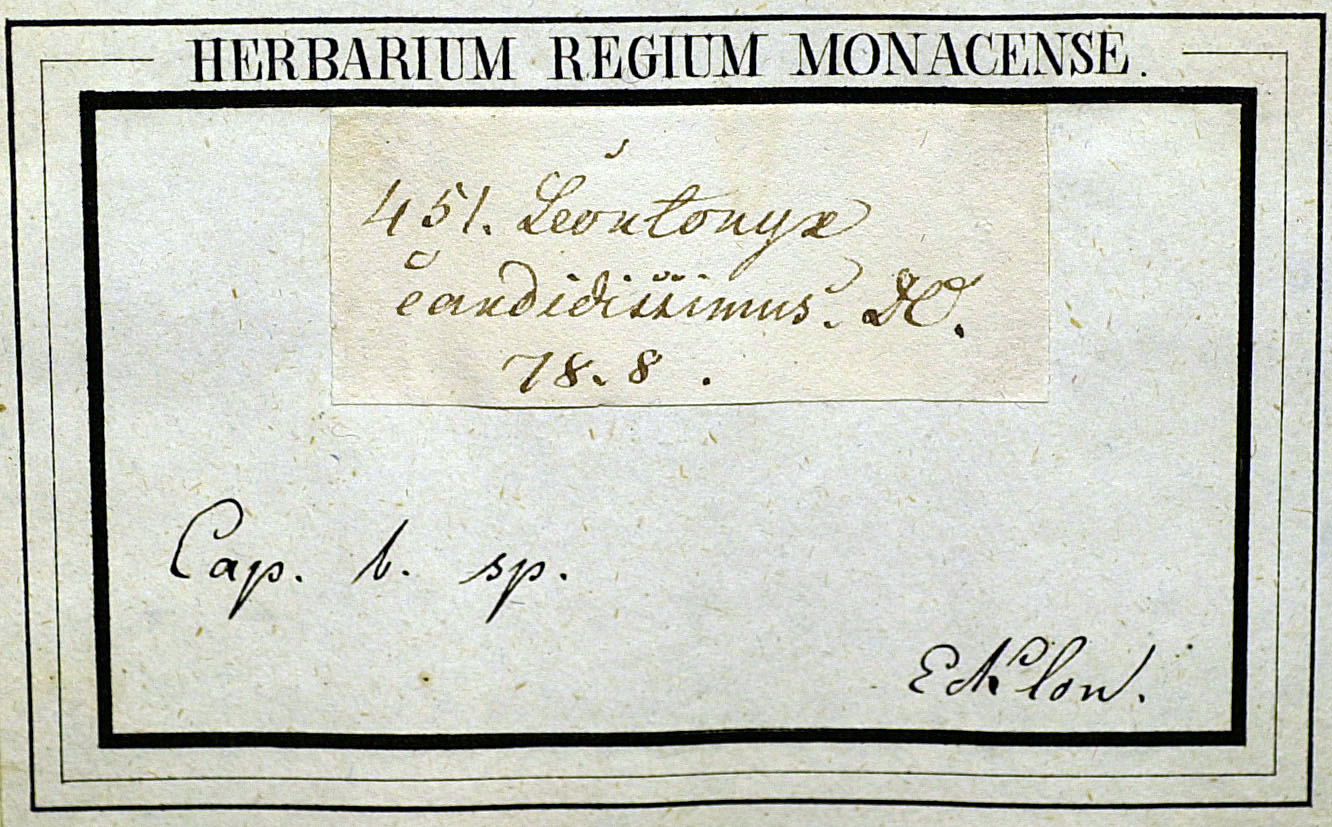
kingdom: Plantae
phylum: Tracheophyta
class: Magnoliopsida
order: Asterales
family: Asteraceae
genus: Helichrysum
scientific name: Helichrysum litorale
